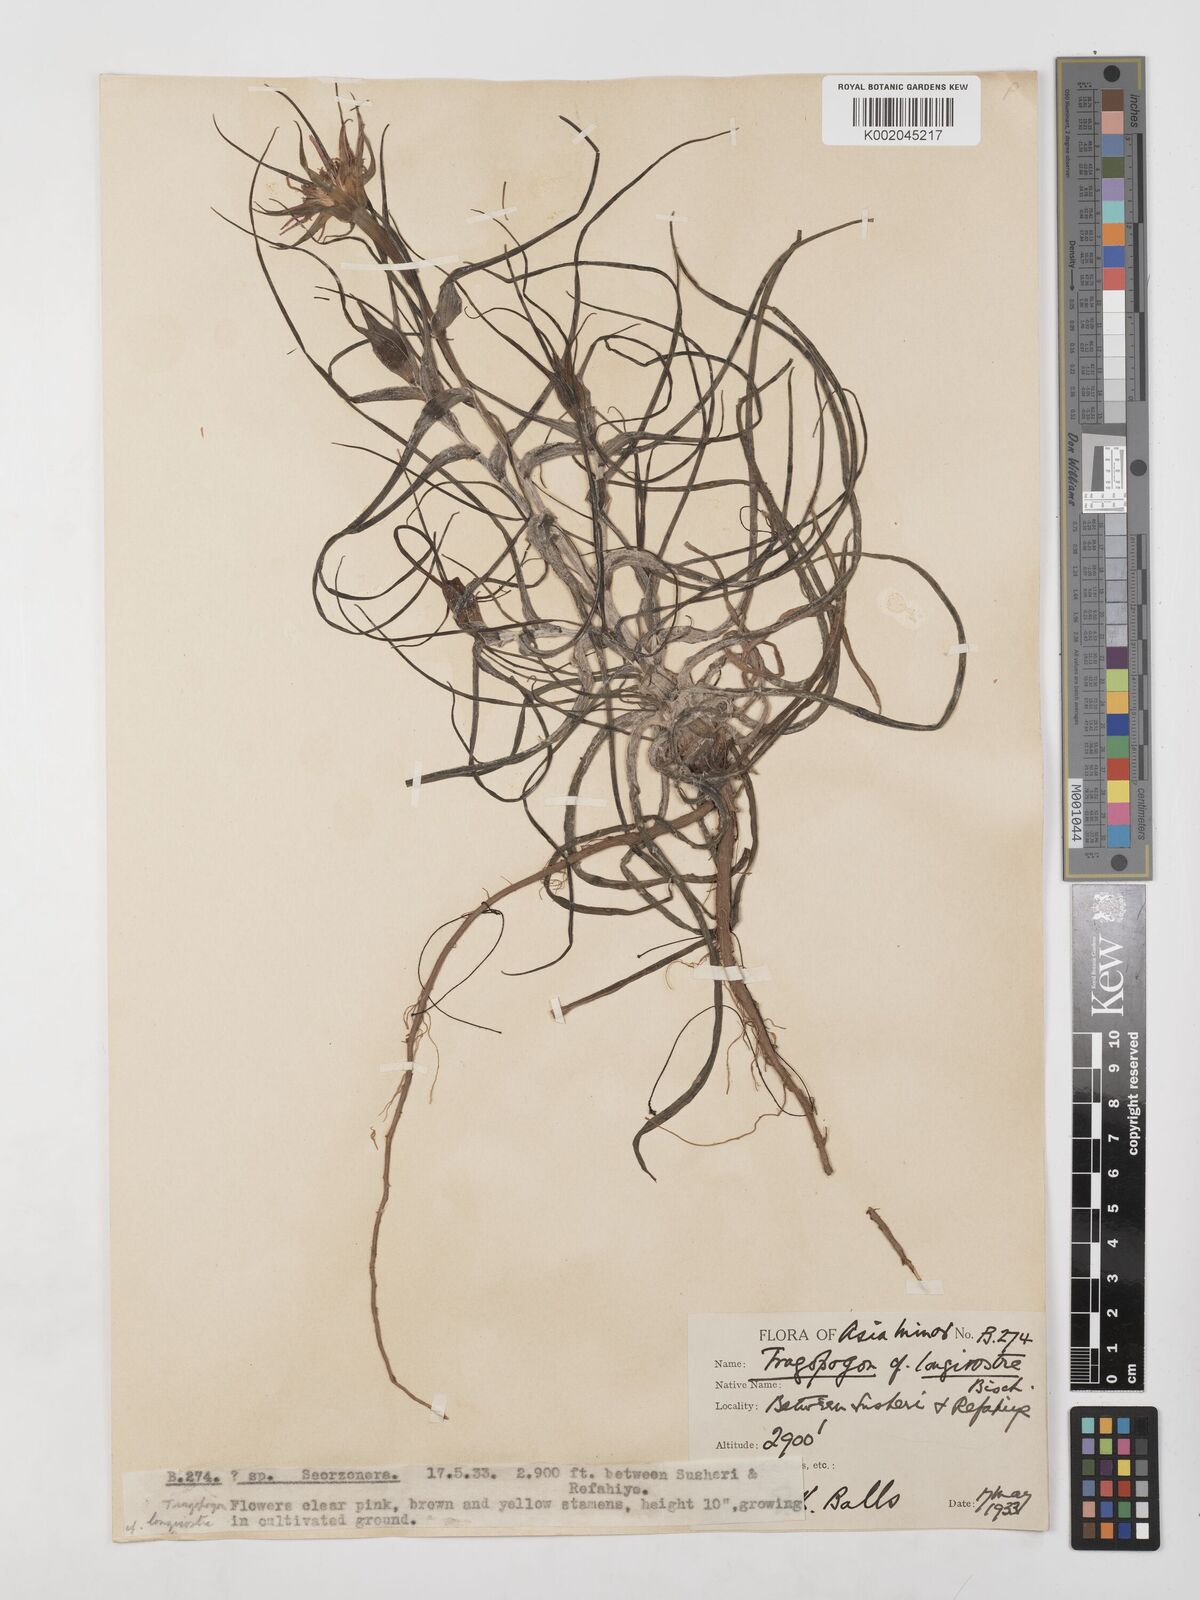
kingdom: Plantae
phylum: Tracheophyta
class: Magnoliopsida
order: Asterales
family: Asteraceae
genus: Tragopogon
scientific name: Tragopogon coelesyriacus
